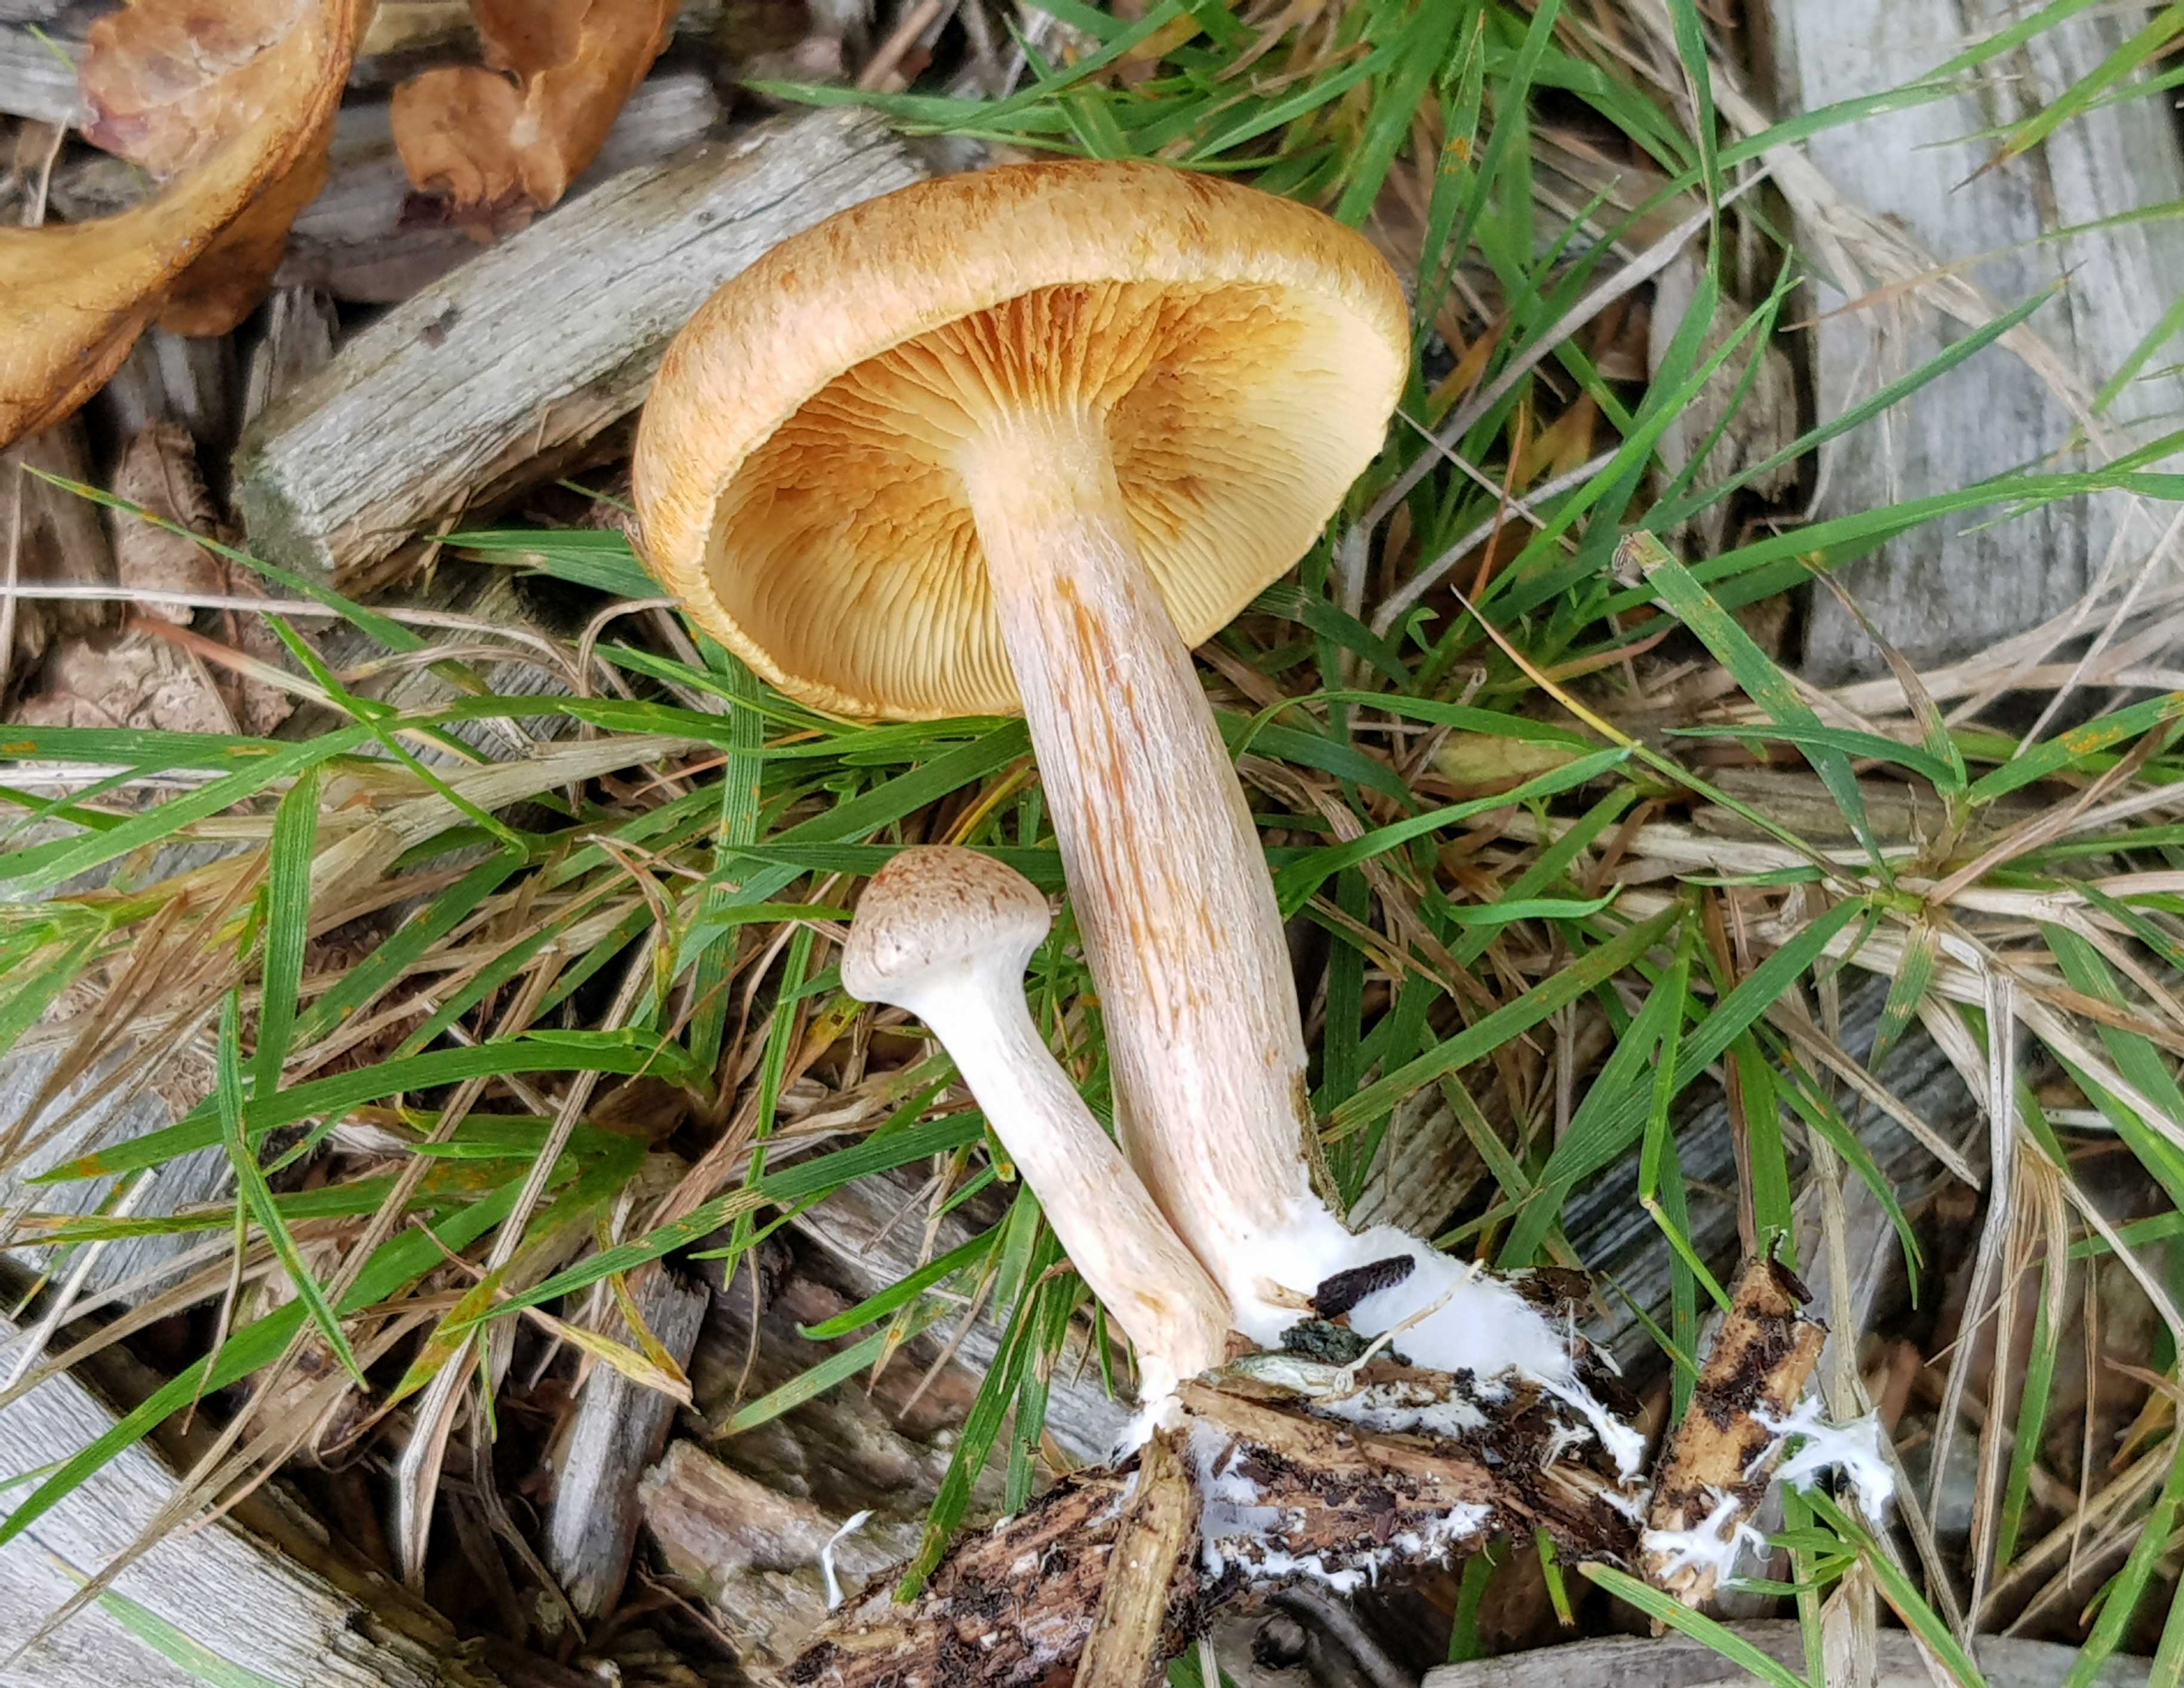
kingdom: Fungi
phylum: Basidiomycota
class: Agaricomycetes
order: Agaricales
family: Hymenogastraceae
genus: Gymnopilus
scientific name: Gymnopilus penetrans
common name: plettet flammehat
